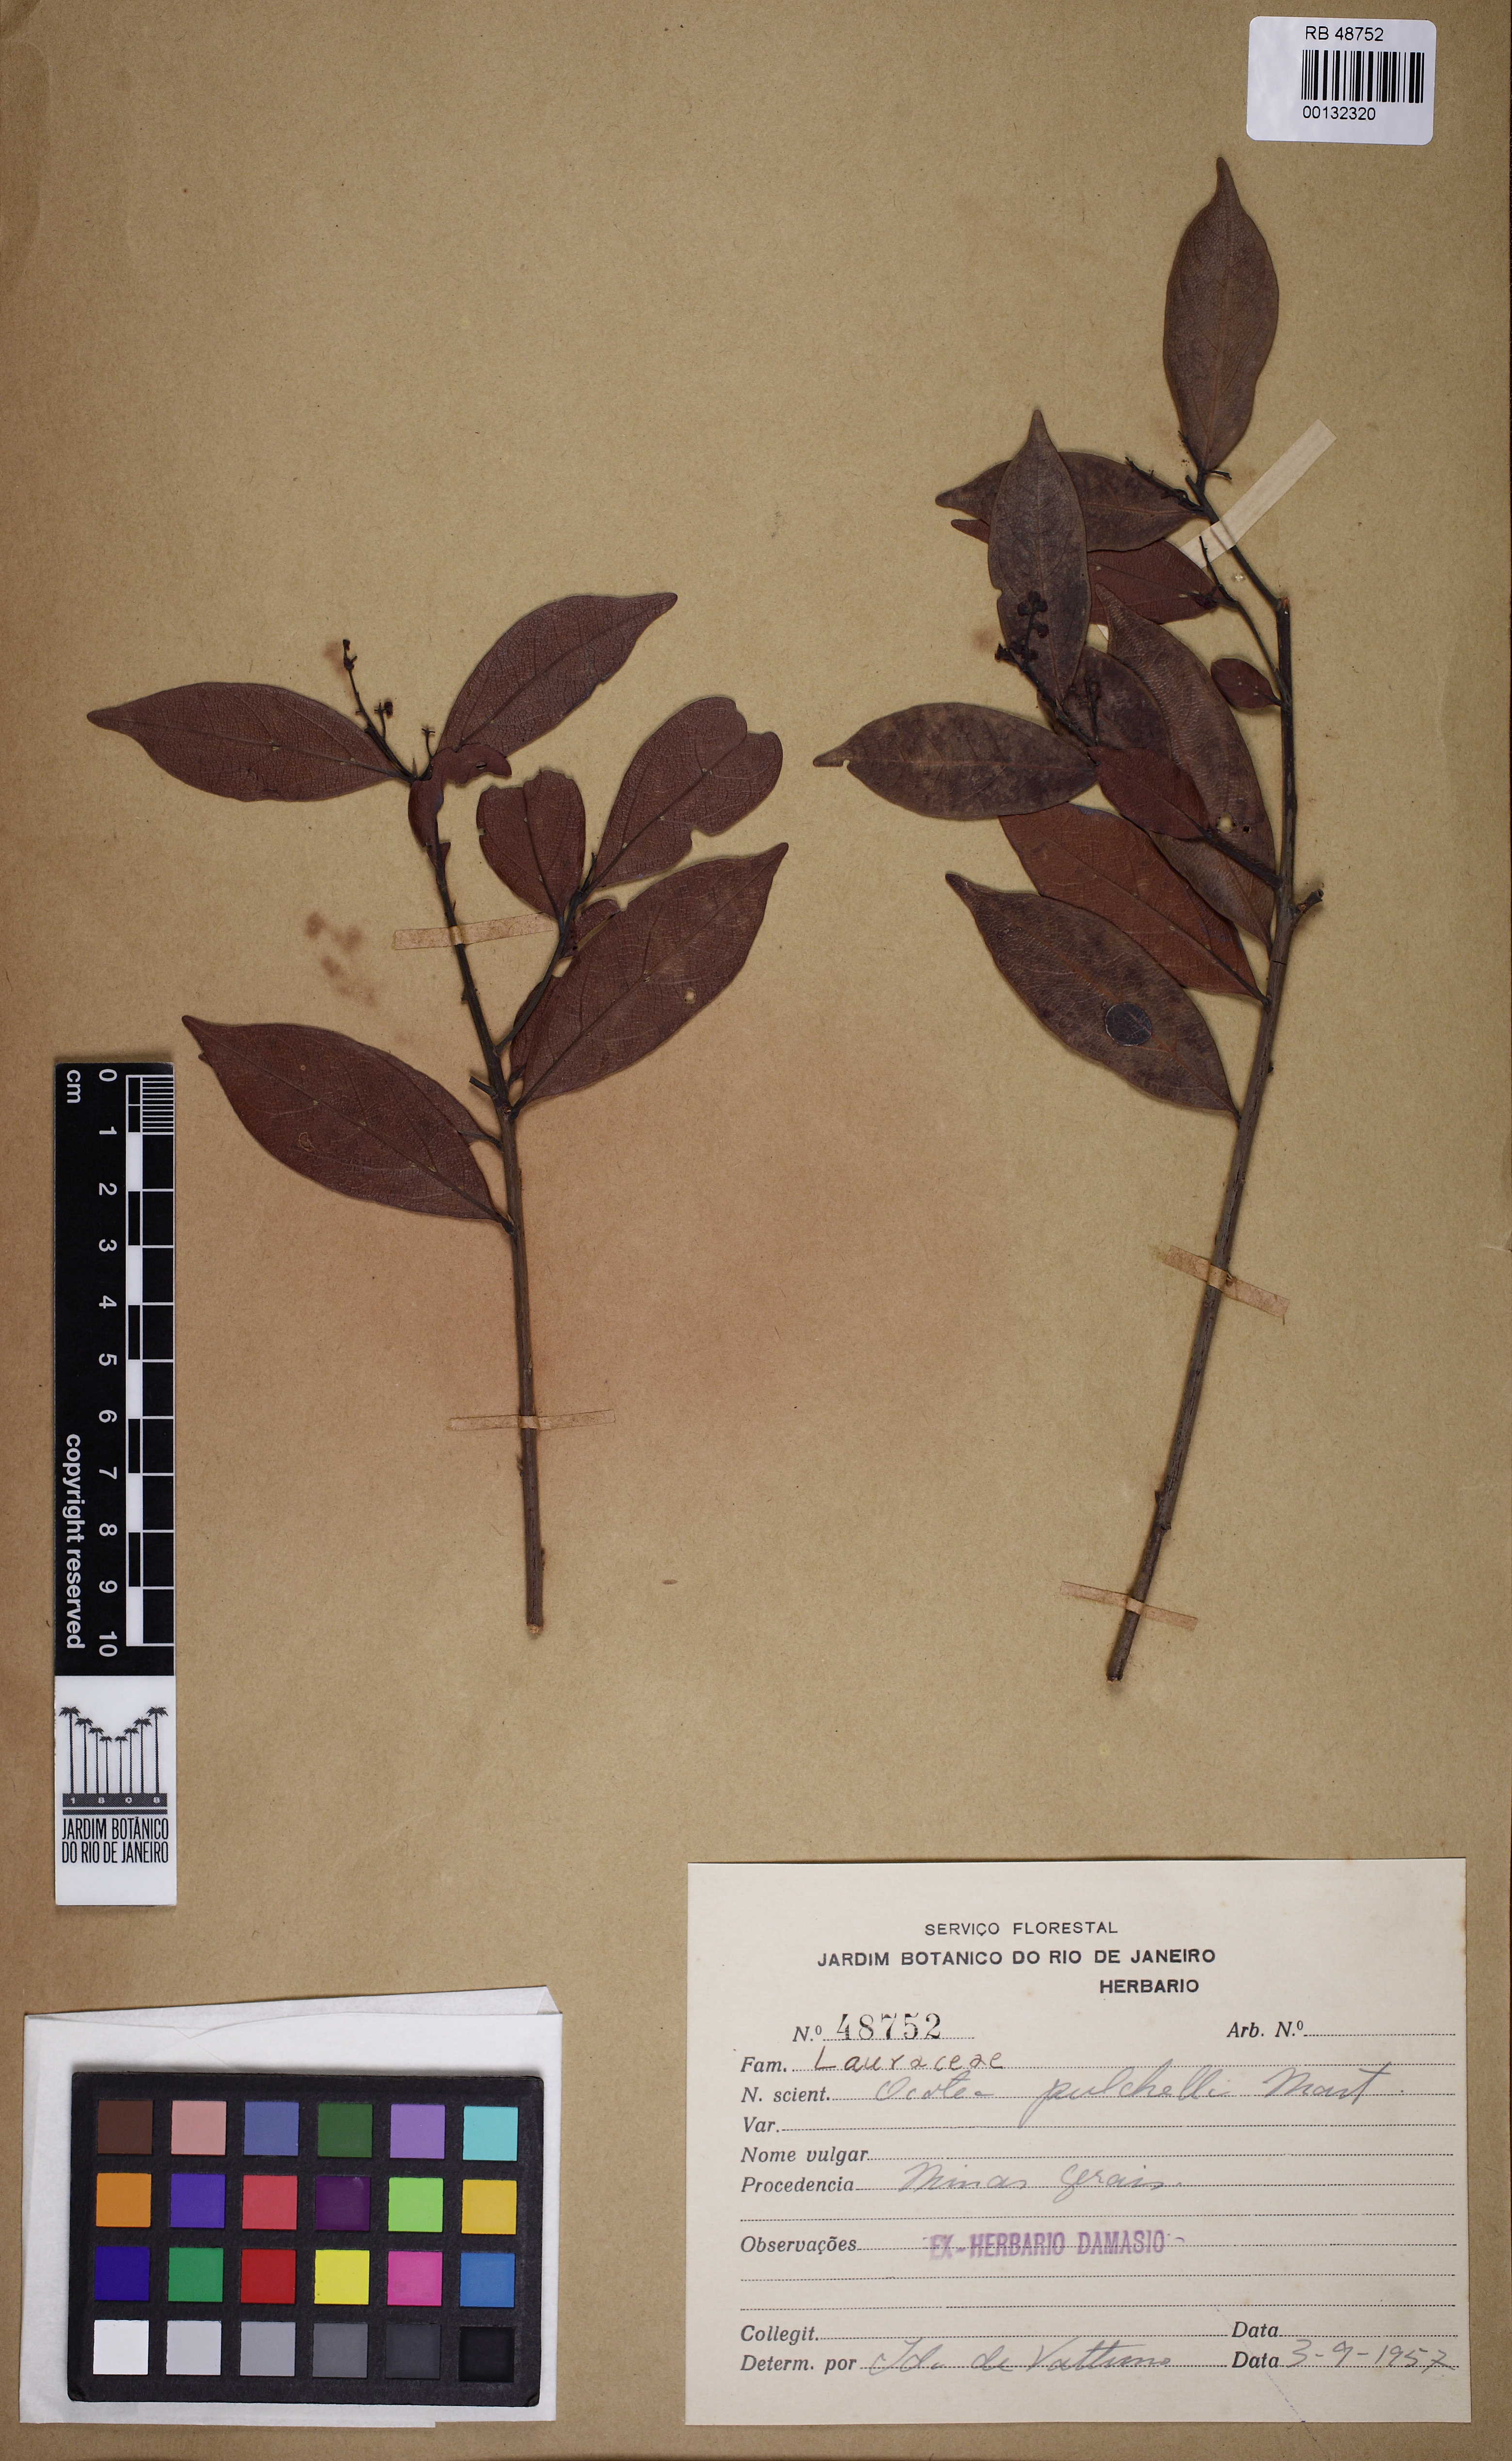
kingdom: Plantae
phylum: Tracheophyta
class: Magnoliopsida
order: Laurales
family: Lauraceae
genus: Mespilodaphne
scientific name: Mespilodaphne pulchella
